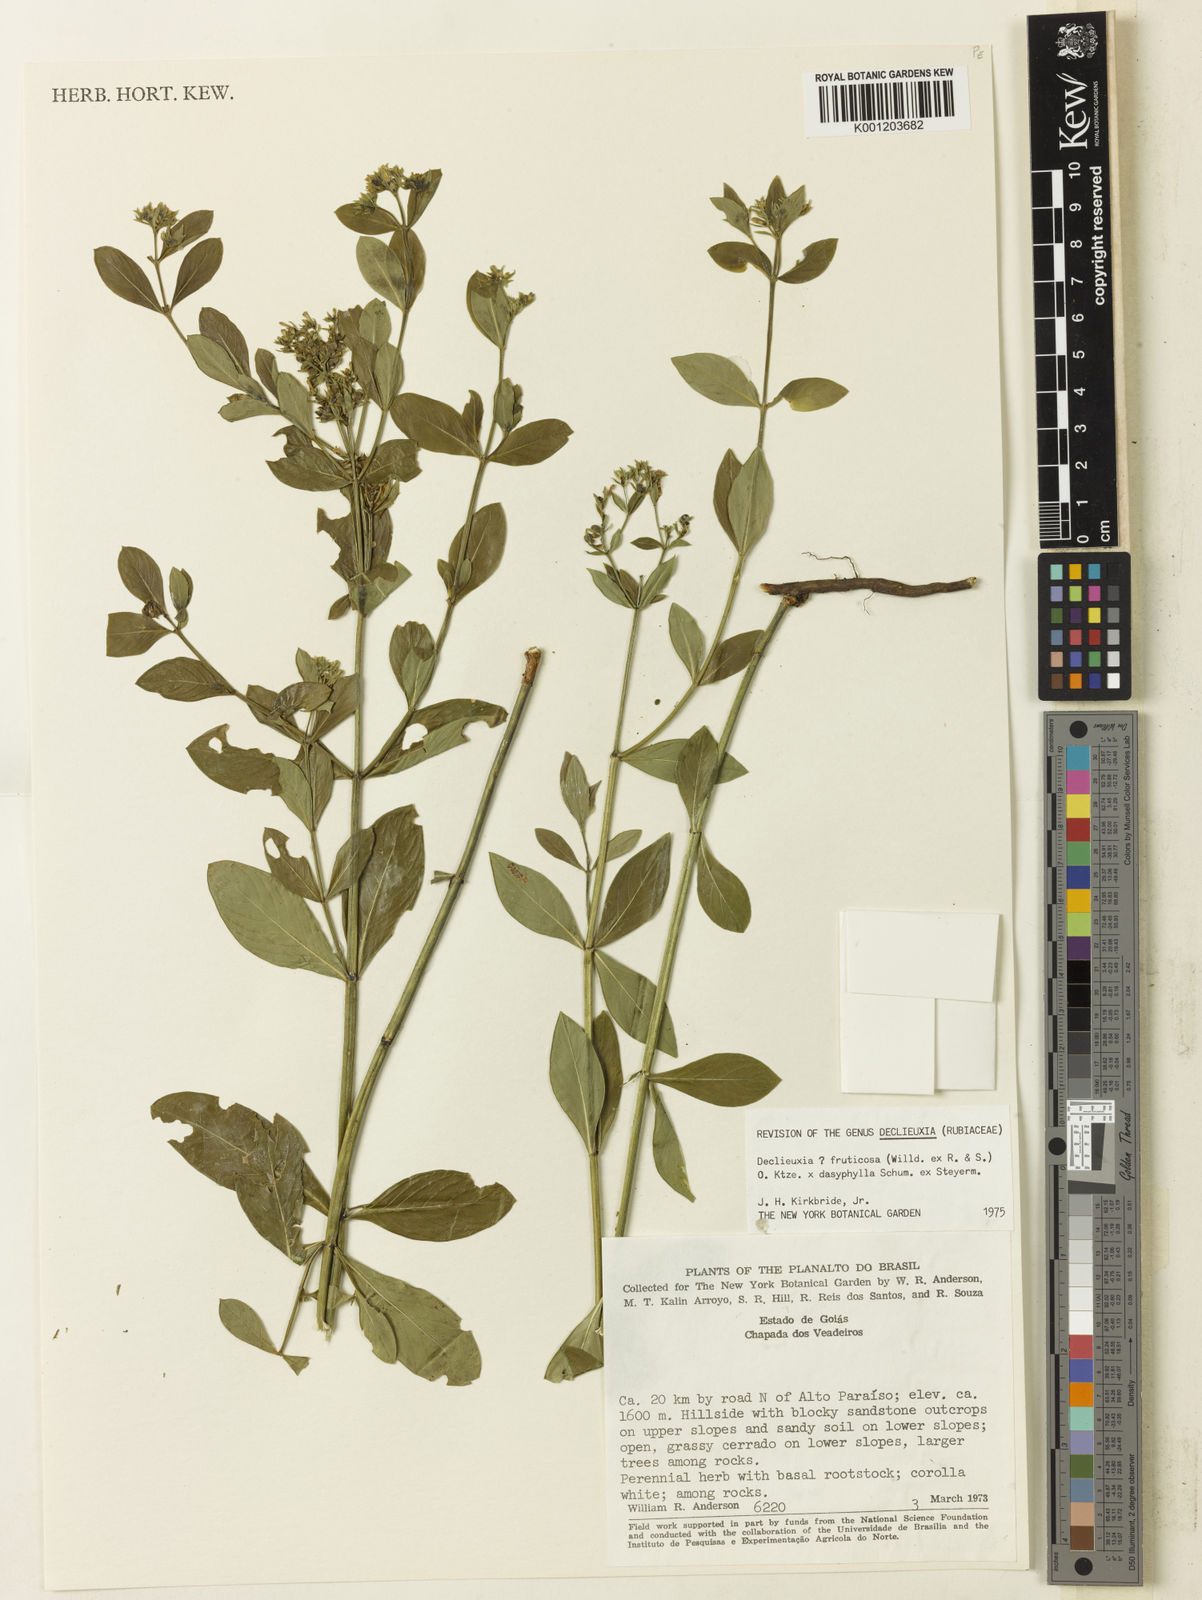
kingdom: Plantae
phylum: Tracheophyta
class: Magnoliopsida
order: Gentianales
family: Rubiaceae
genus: Declieuxia
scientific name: Declieuxia
